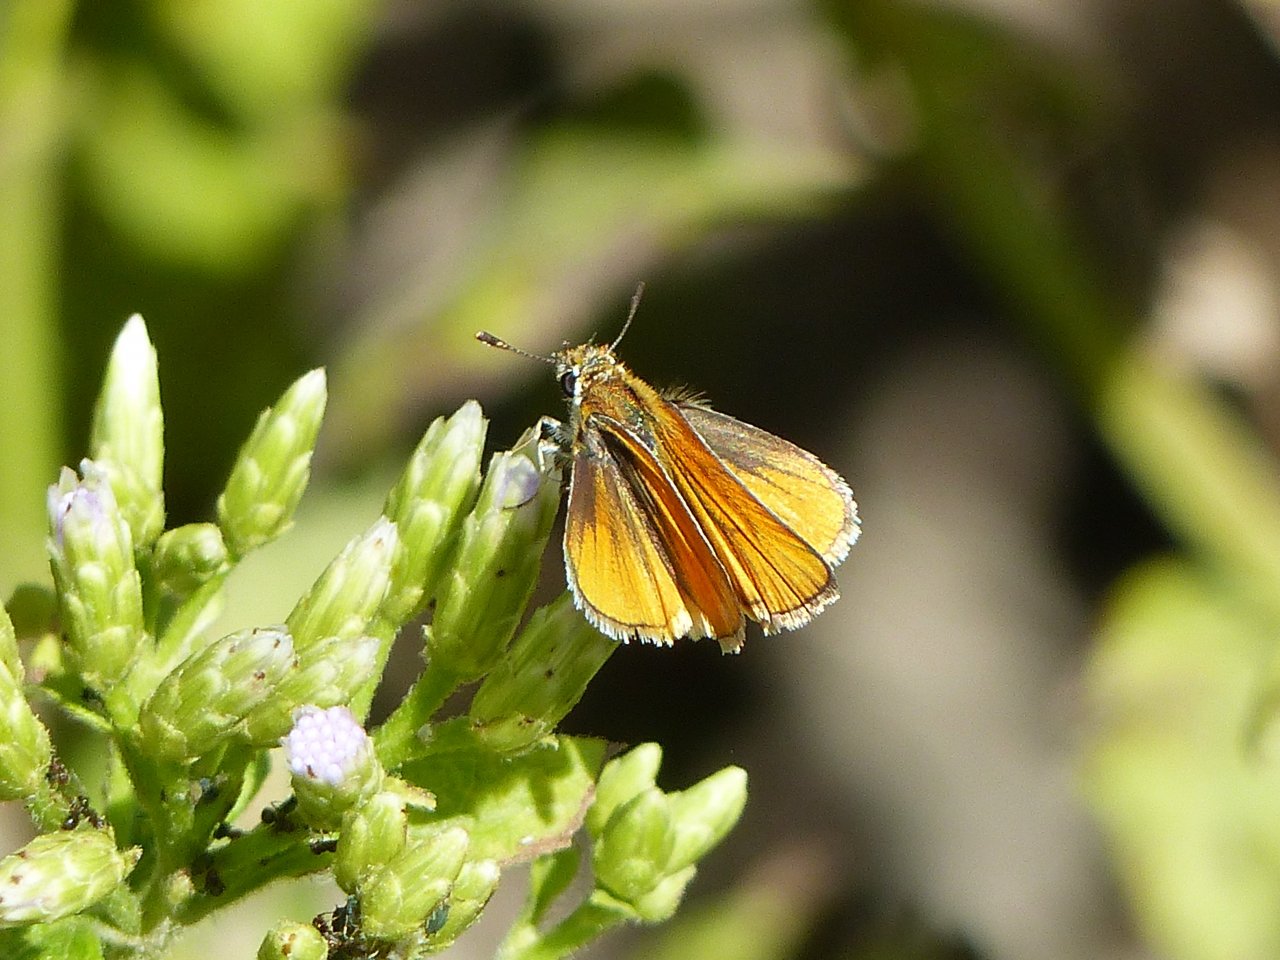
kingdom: Animalia
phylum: Arthropoda
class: Insecta
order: Lepidoptera
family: Hesperiidae
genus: Copaeodes
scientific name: Copaeodes minima
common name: Southern Skipperling
